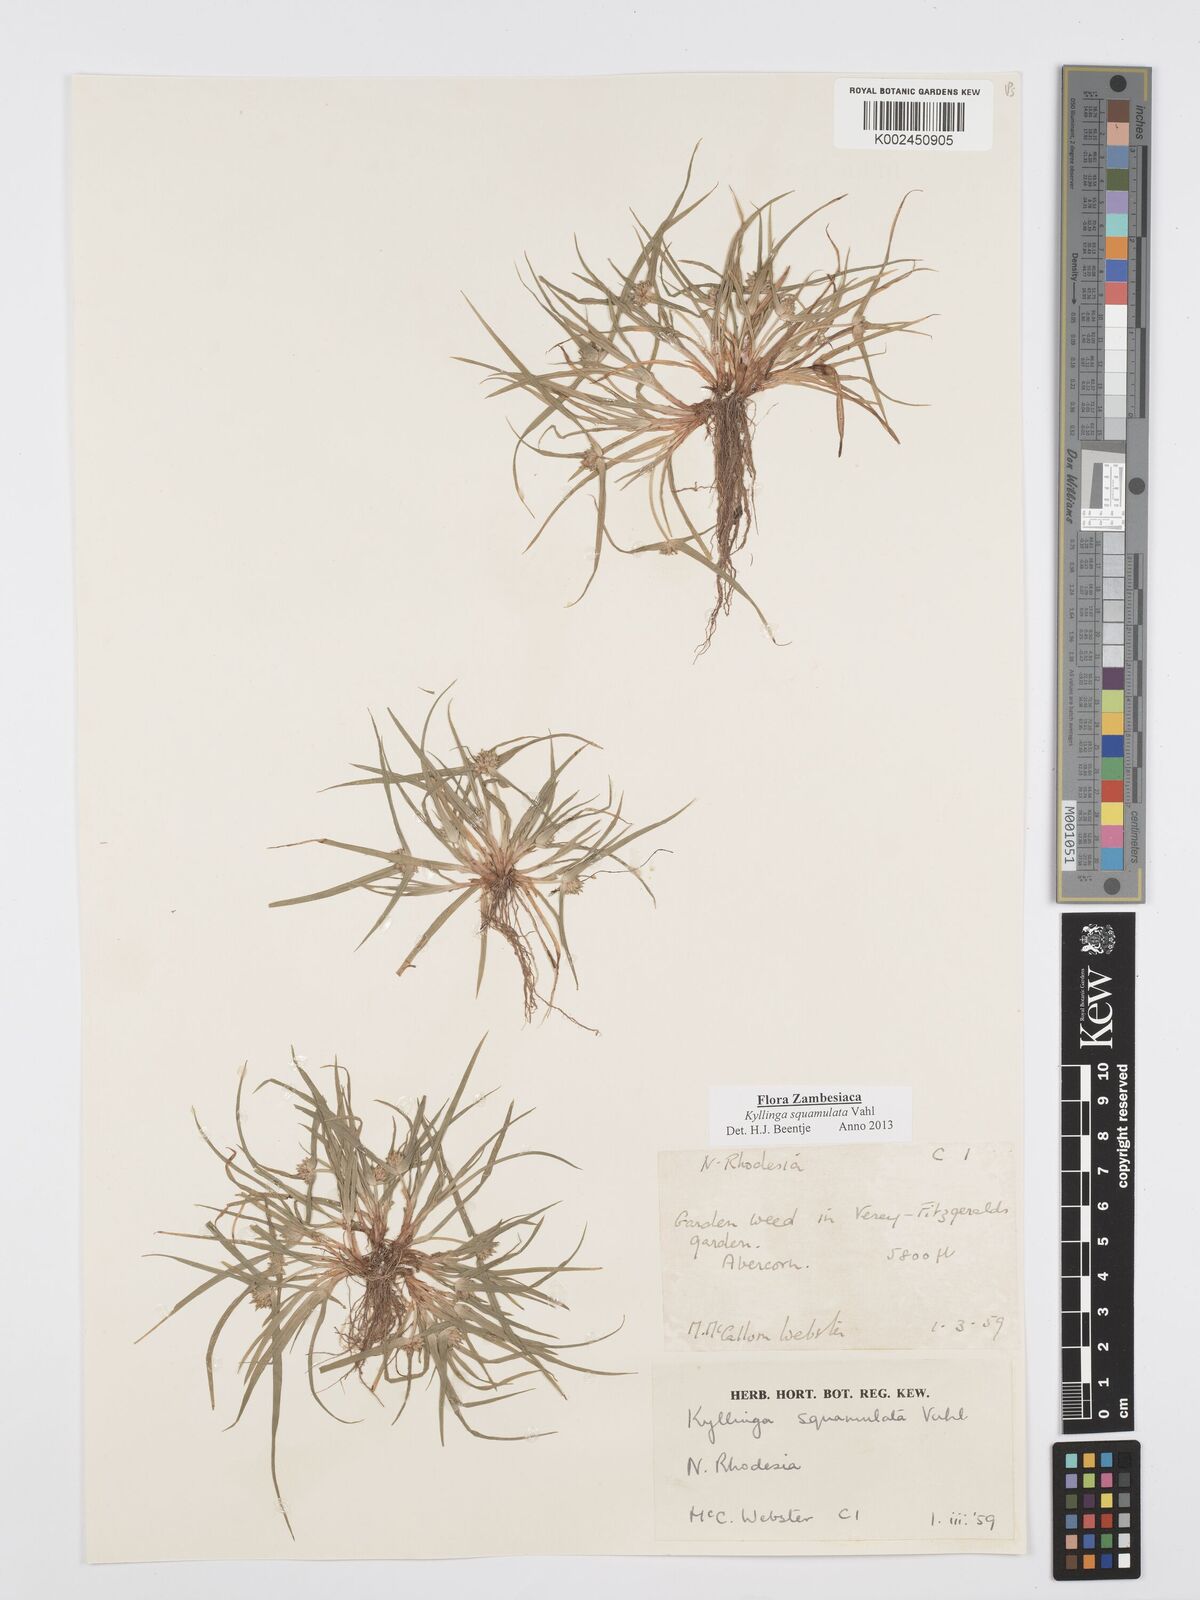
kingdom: Plantae
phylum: Tracheophyta
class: Liliopsida
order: Poales
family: Cyperaceae
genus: Cyperus
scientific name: Cyperus distans
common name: Slender cyperus
